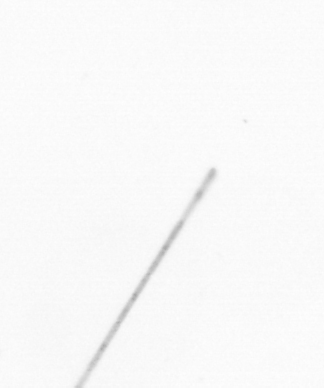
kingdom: Chromista
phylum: Ochrophyta
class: Bacillariophyceae
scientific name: Bacillariophyceae
